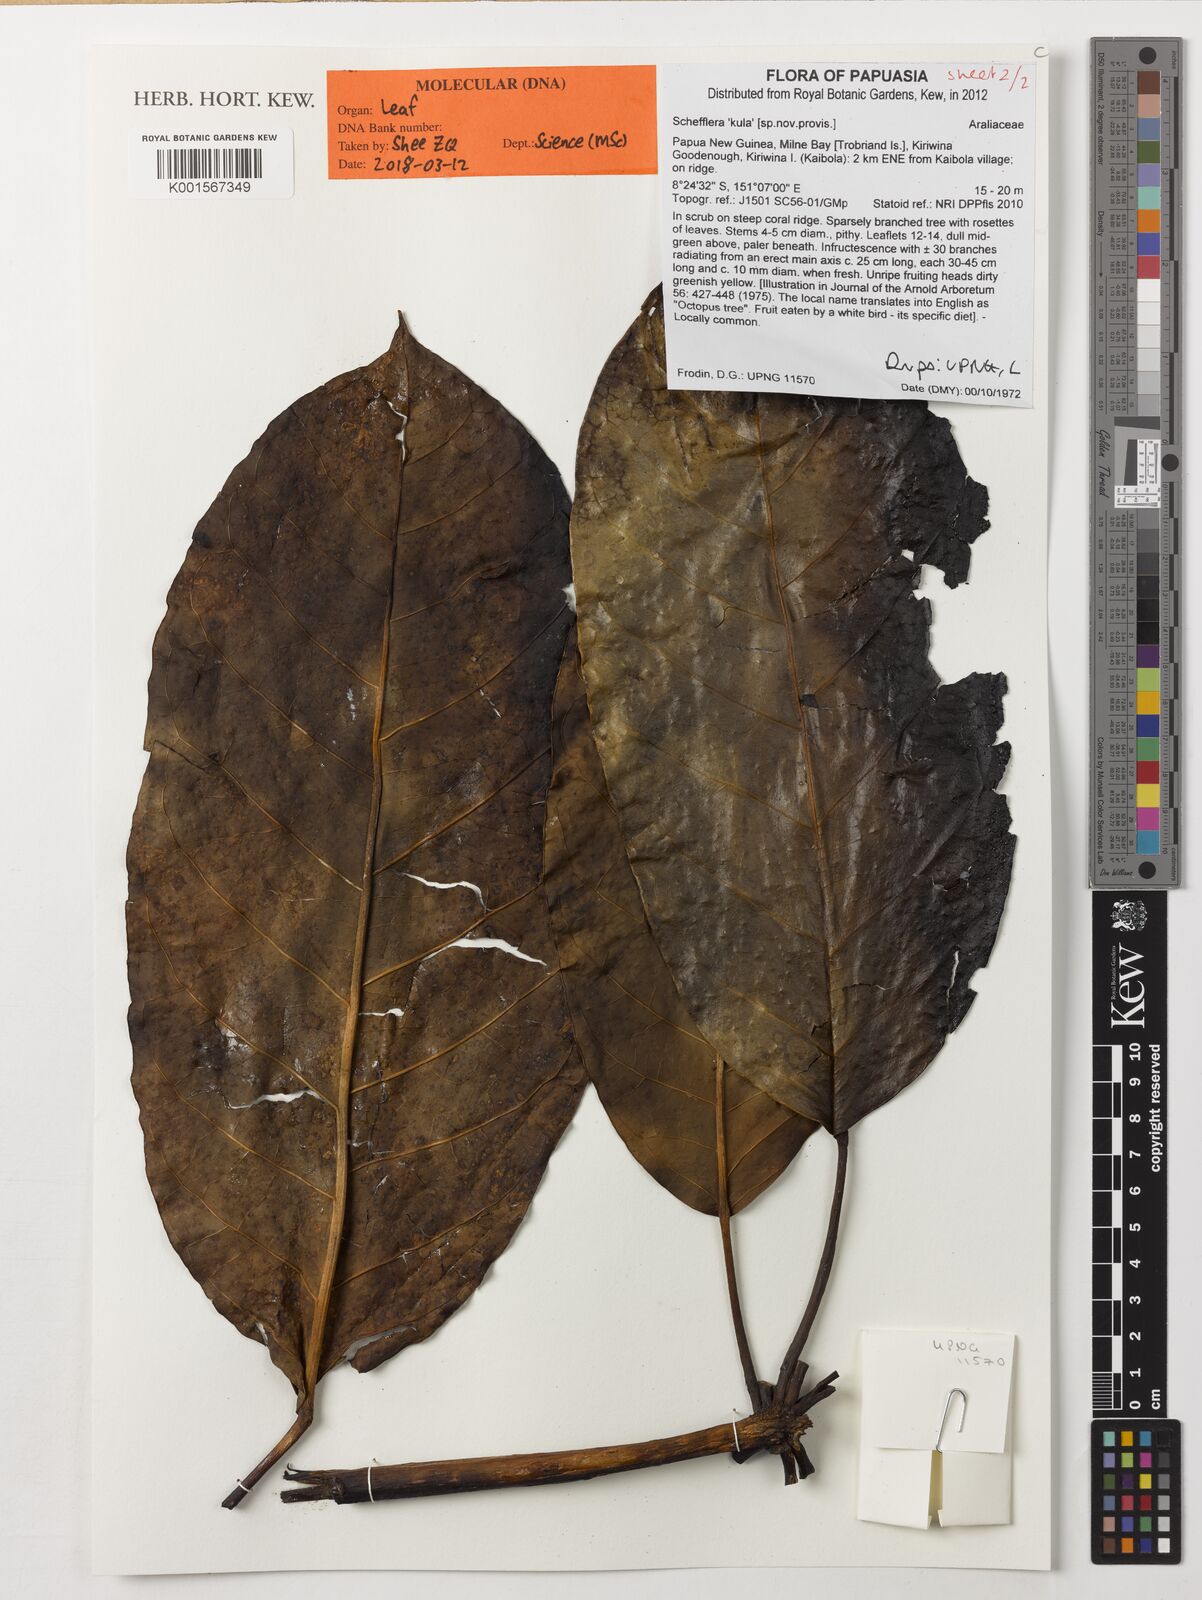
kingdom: Plantae
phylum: Tracheophyta
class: Magnoliopsida
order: Apiales
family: Araliaceae
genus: Schefflera
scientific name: Schefflera
